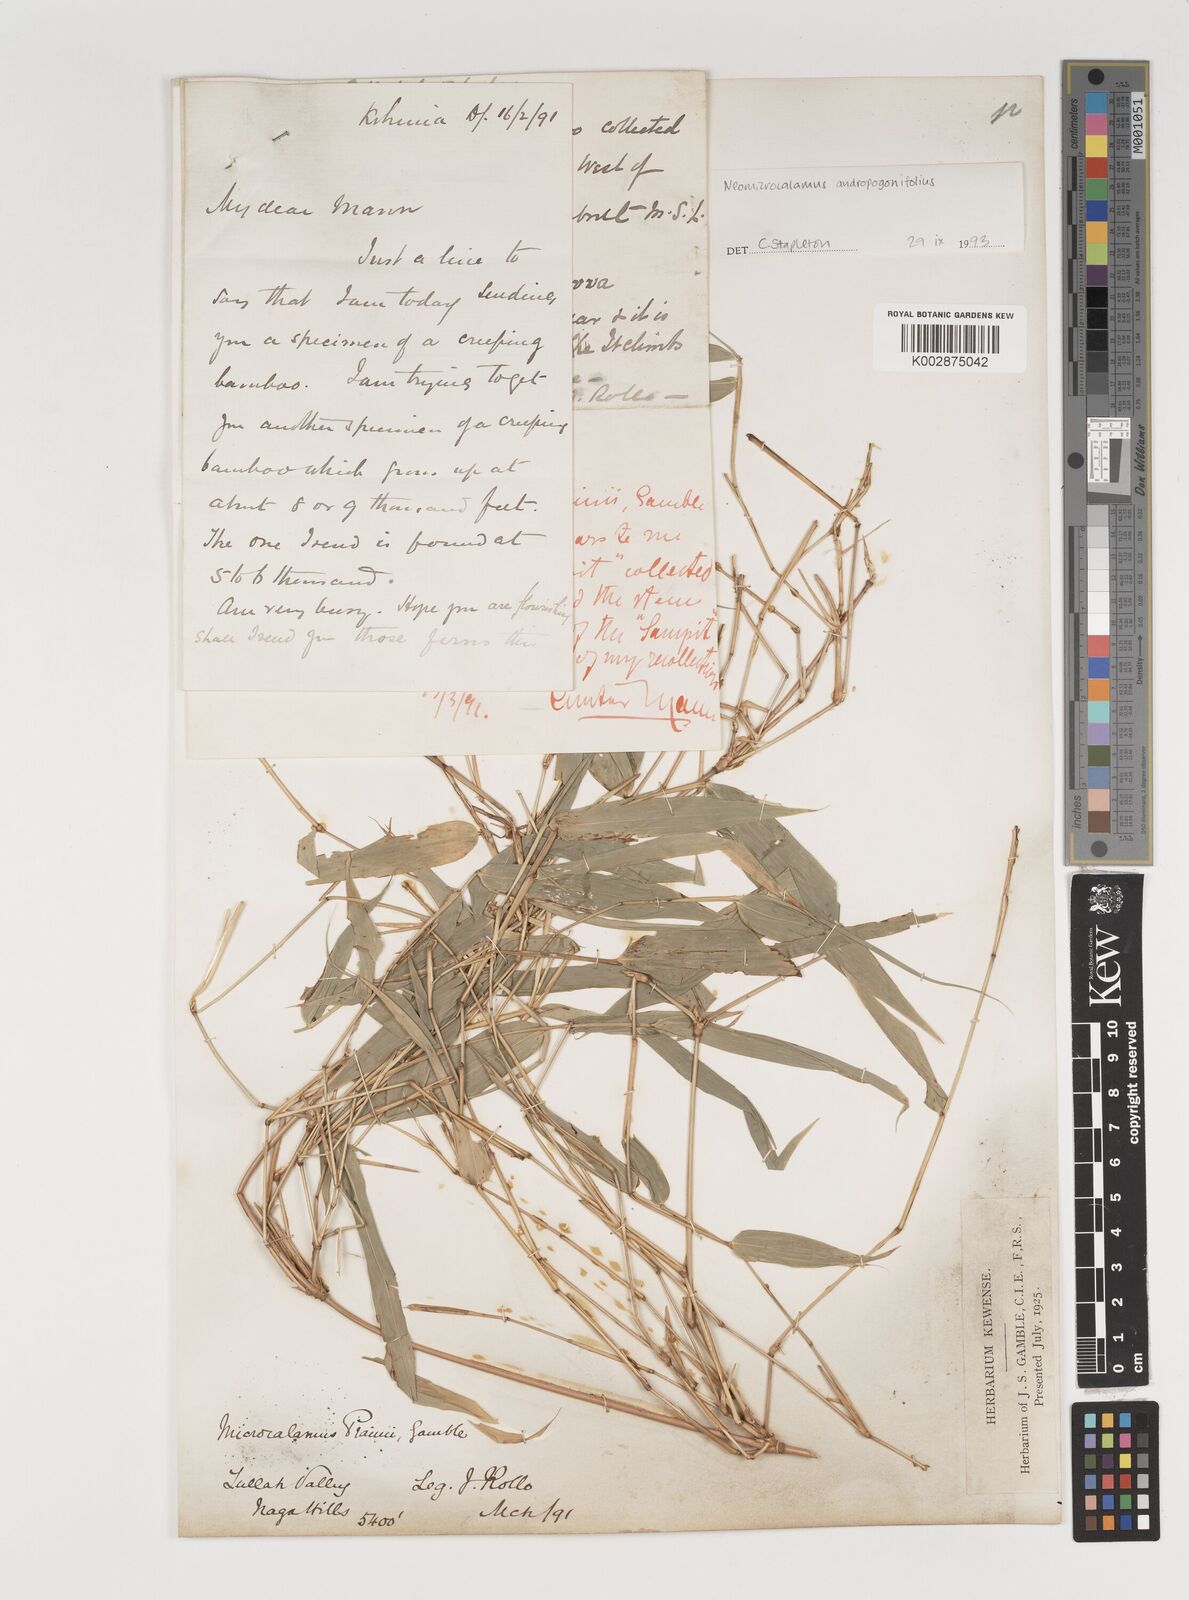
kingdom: Plantae
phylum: Tracheophyta
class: Liliopsida
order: Poales
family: Poaceae
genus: Neomicrocalamus
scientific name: Neomicrocalamus andropogonifolius
